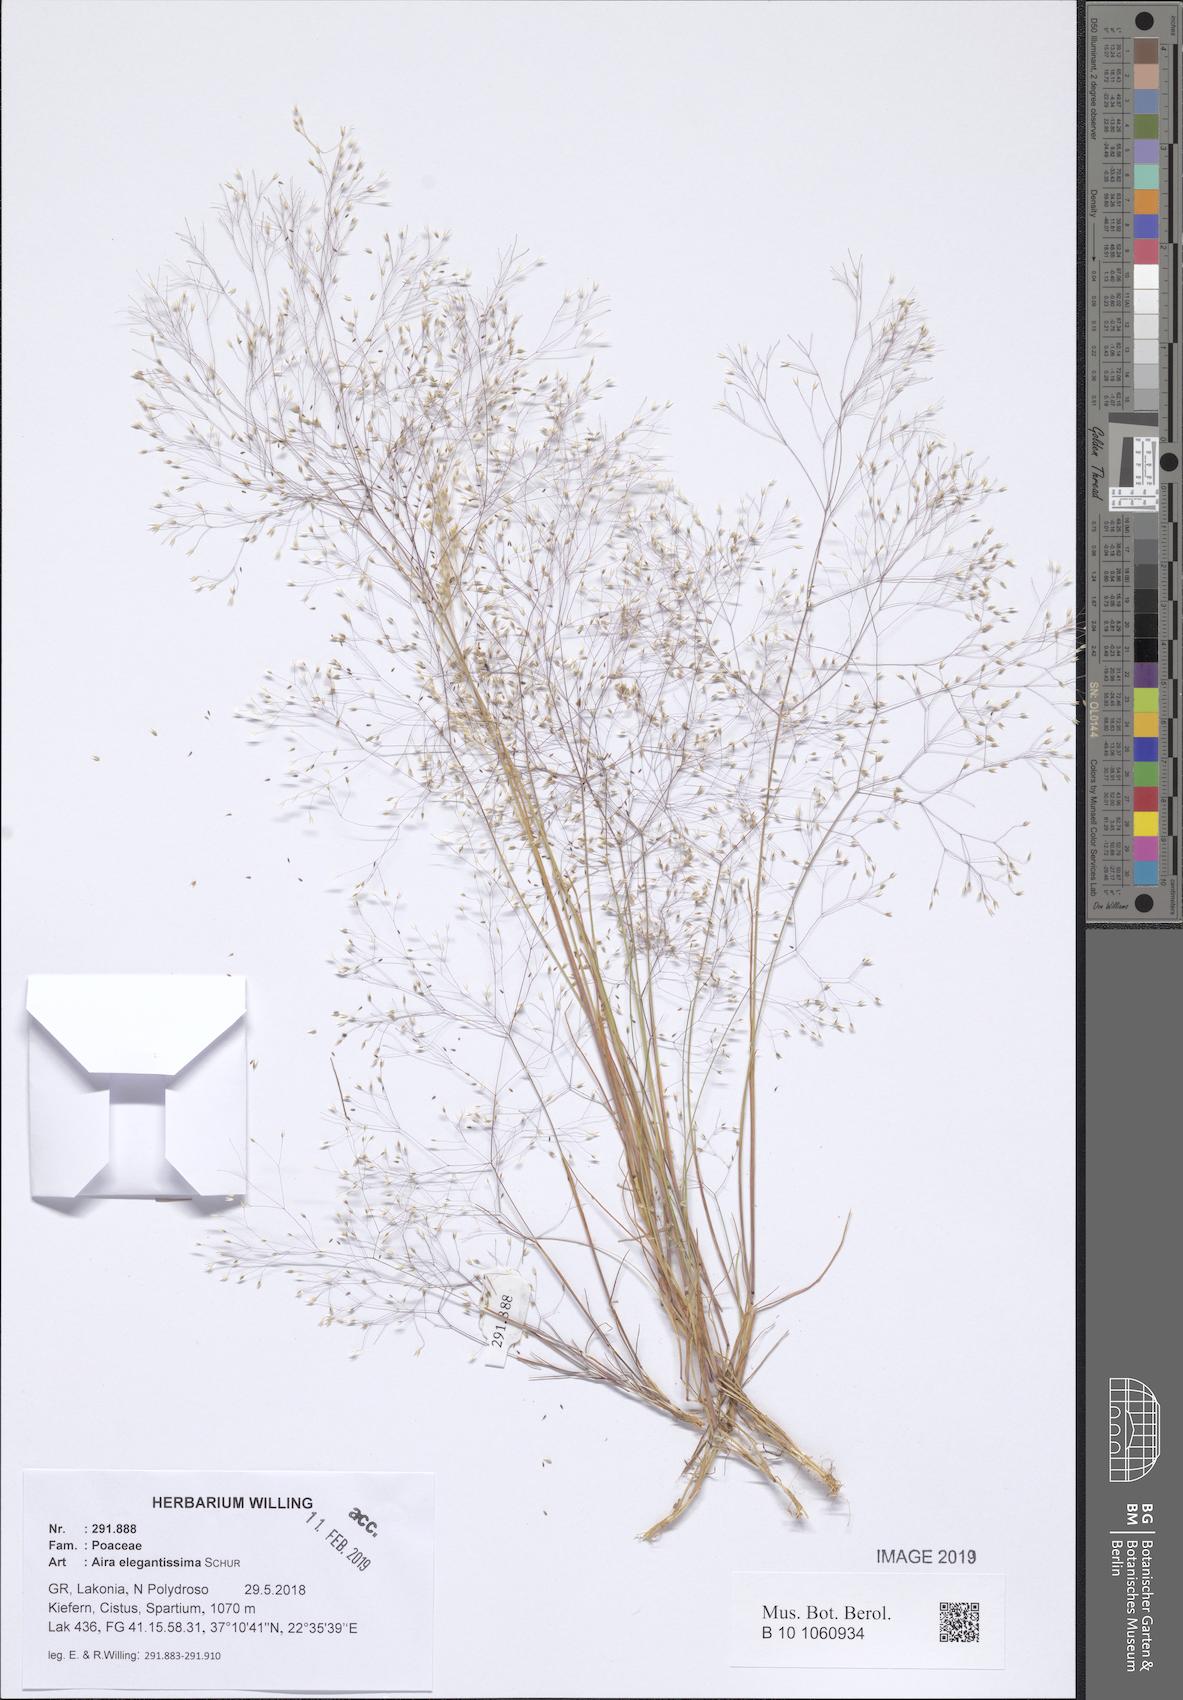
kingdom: Plantae
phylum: Tracheophyta
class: Liliopsida
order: Poales
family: Poaceae
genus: Aira
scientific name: Aira elegans
